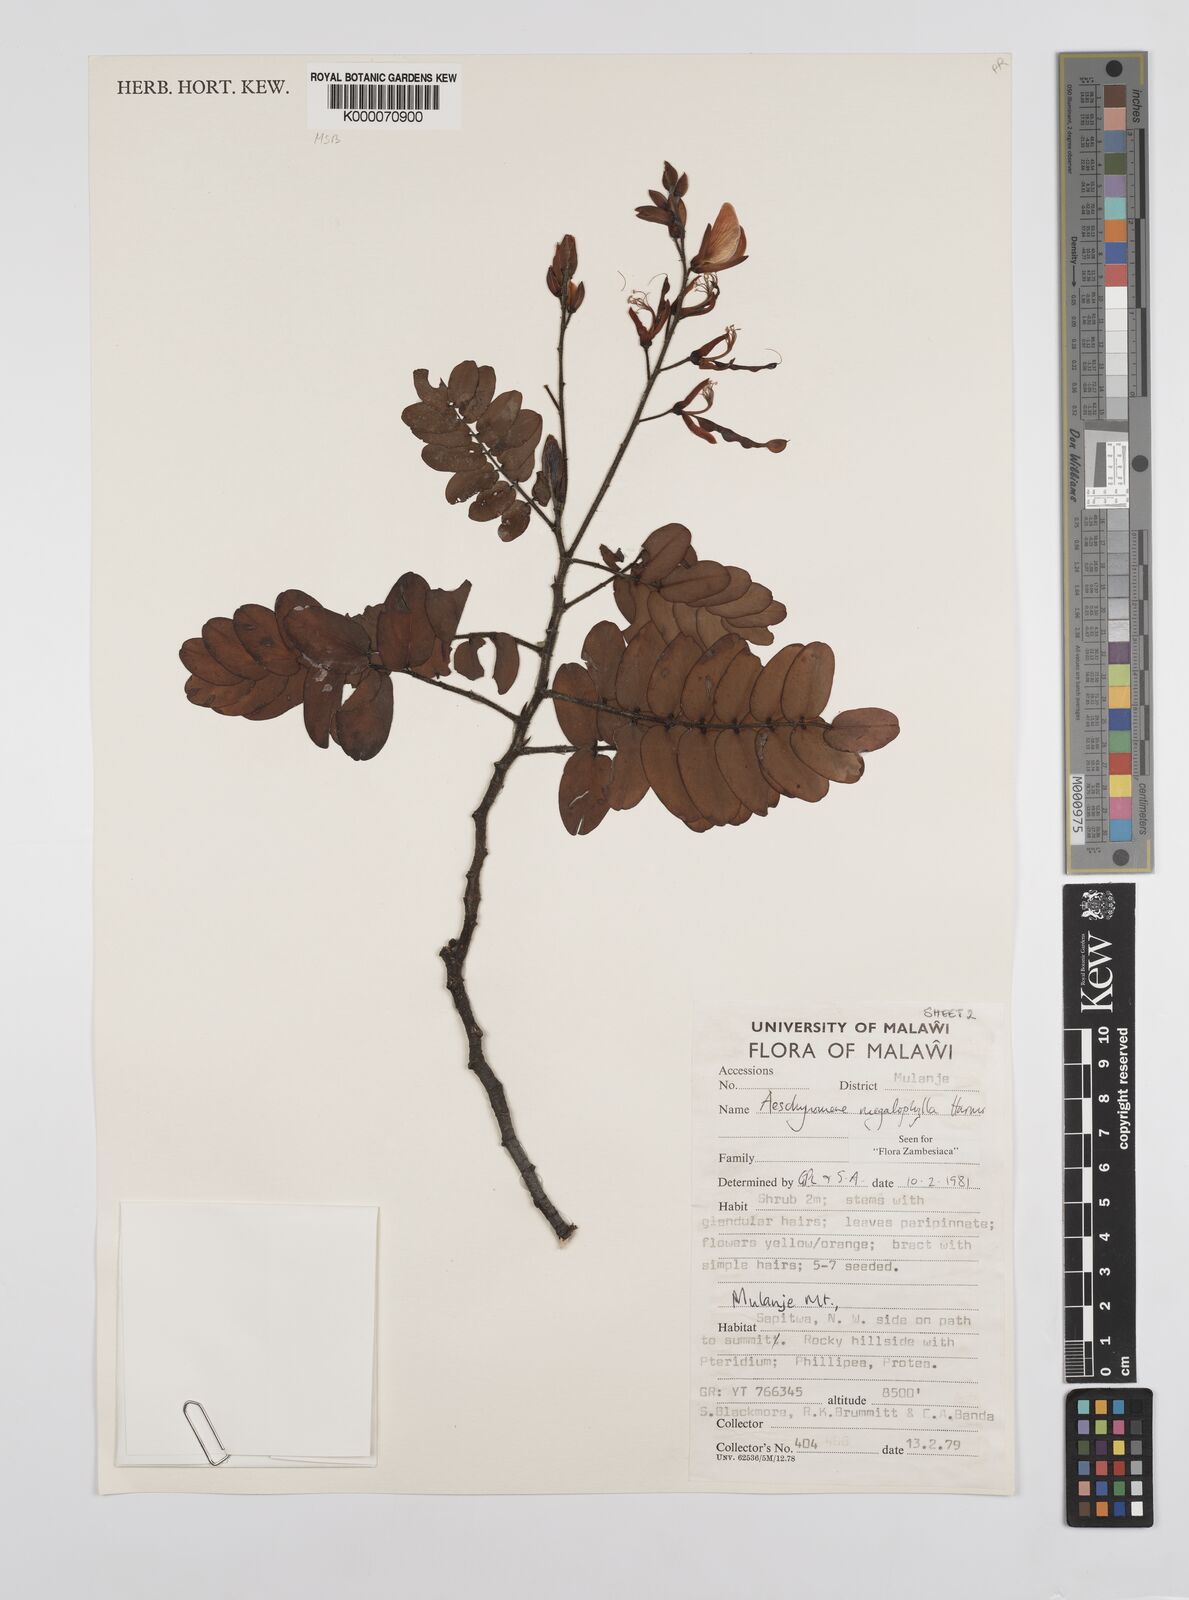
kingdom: Plantae
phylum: Tracheophyta
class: Magnoliopsida
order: Fabales
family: Fabaceae
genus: Aeschynomene
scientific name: Aeschynomene megalophylla
